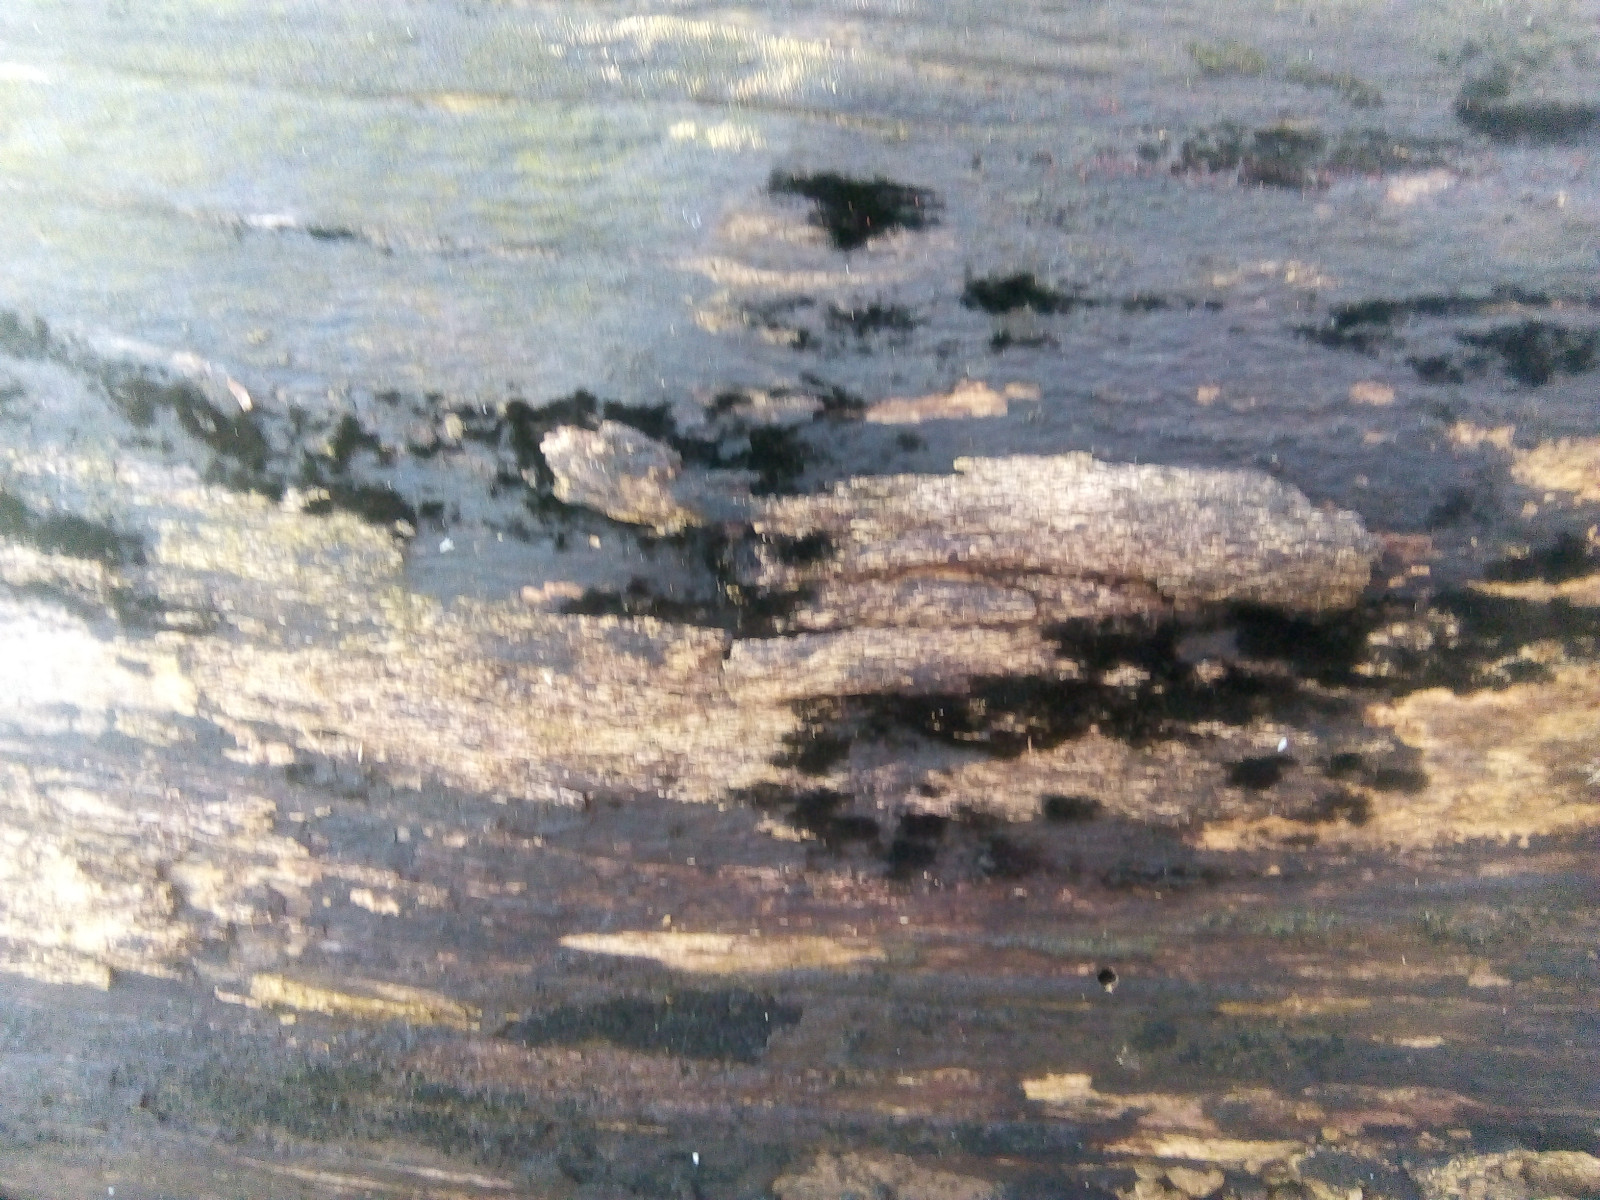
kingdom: Fungi
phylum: Ascomycota
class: Sordariomycetes
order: Coronophorales
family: Chaetosphaerellaceae
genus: Chaetosphaerella
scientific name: Chaetosphaerella phaeostroma
